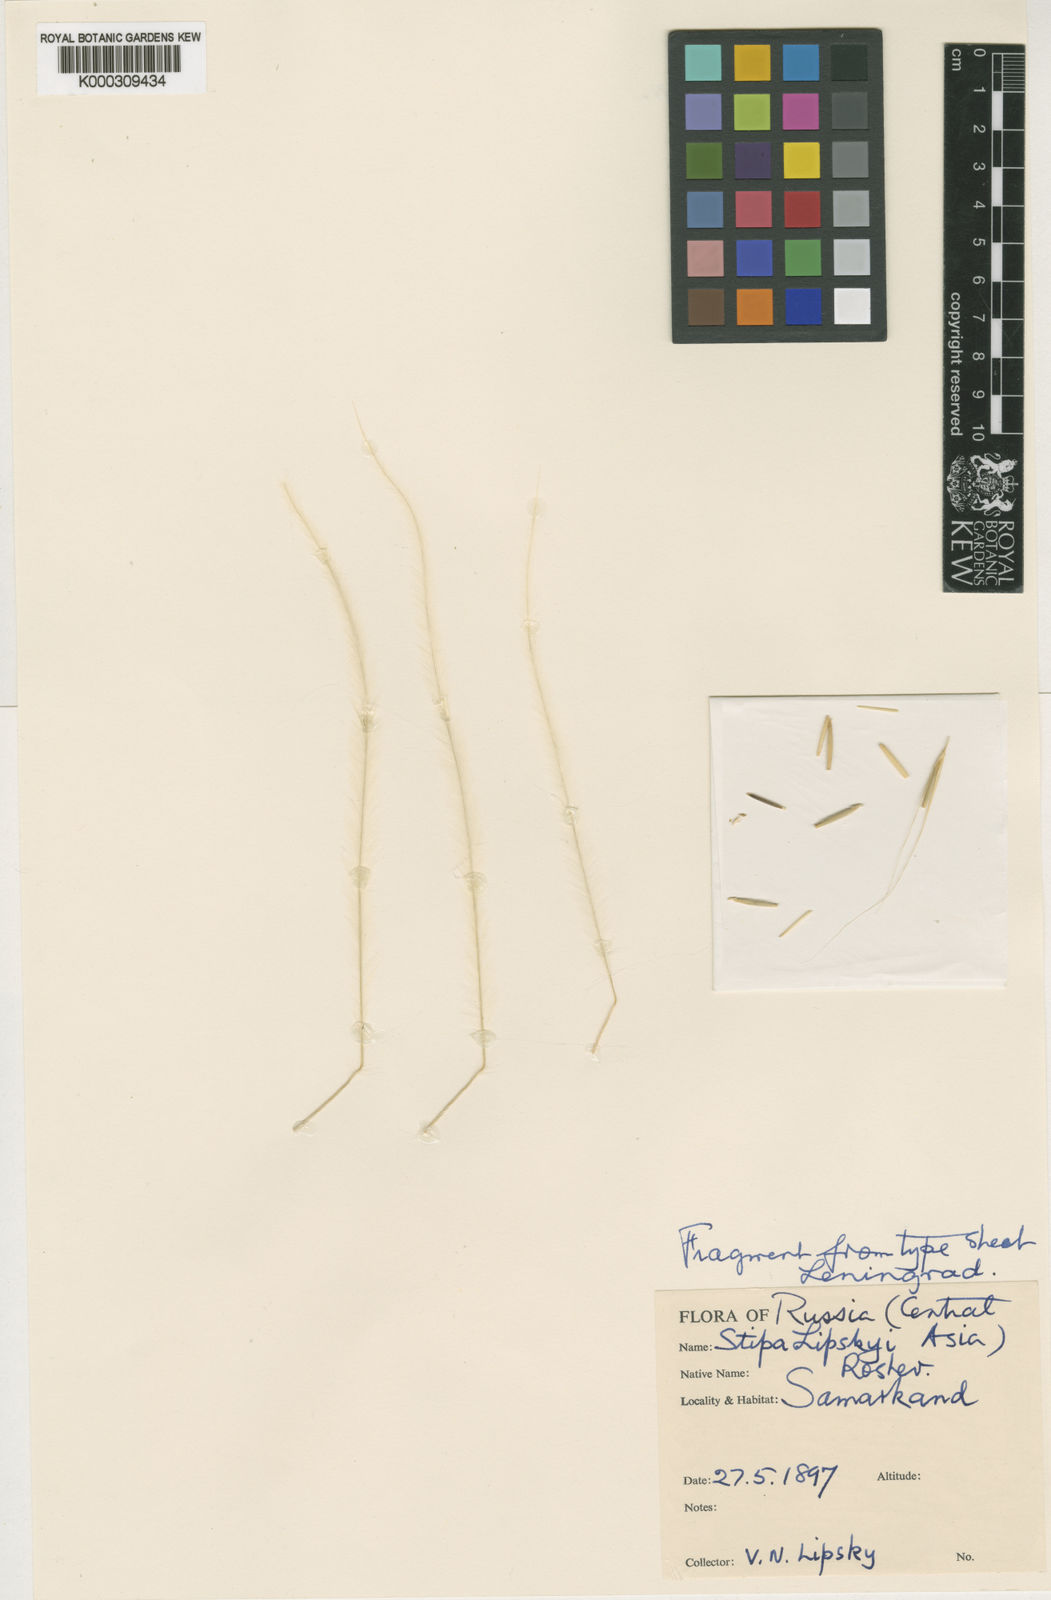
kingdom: Plantae
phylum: Tracheophyta
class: Liliopsida
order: Poales
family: Poaceae
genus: Stipa
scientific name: Stipa lipskyi
